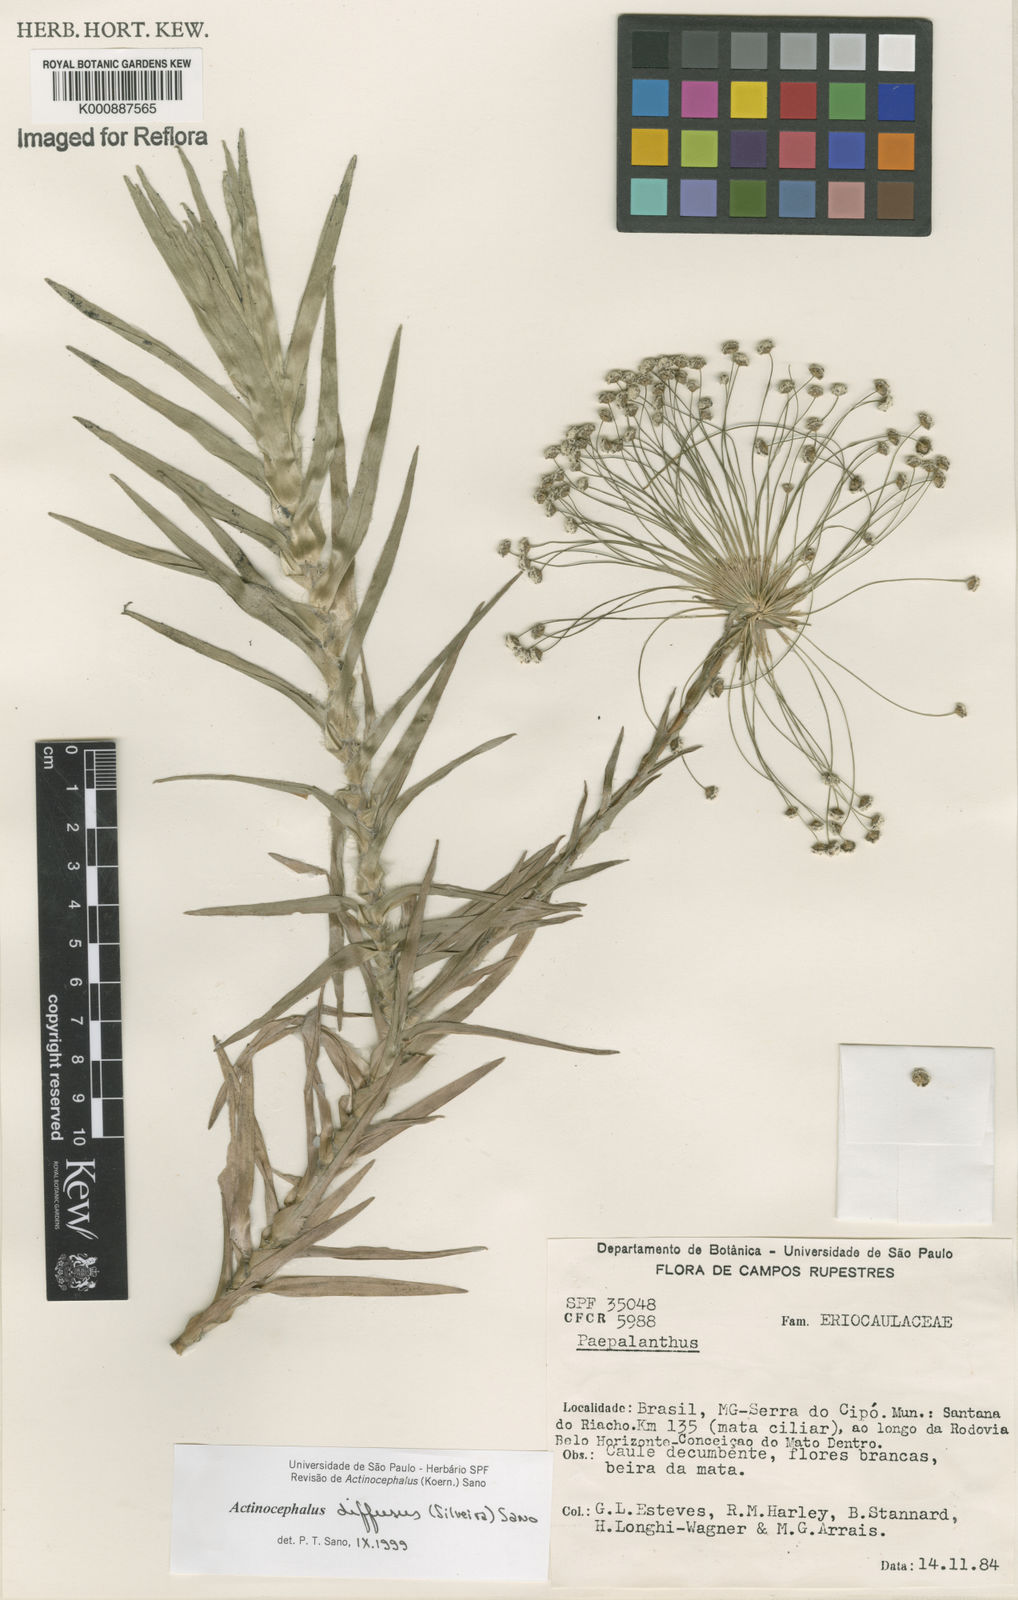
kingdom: Plantae
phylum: Tracheophyta
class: Liliopsida
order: Poales
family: Eriocaulaceae
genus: Paepalanthus
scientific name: Paepalanthus diffusus
